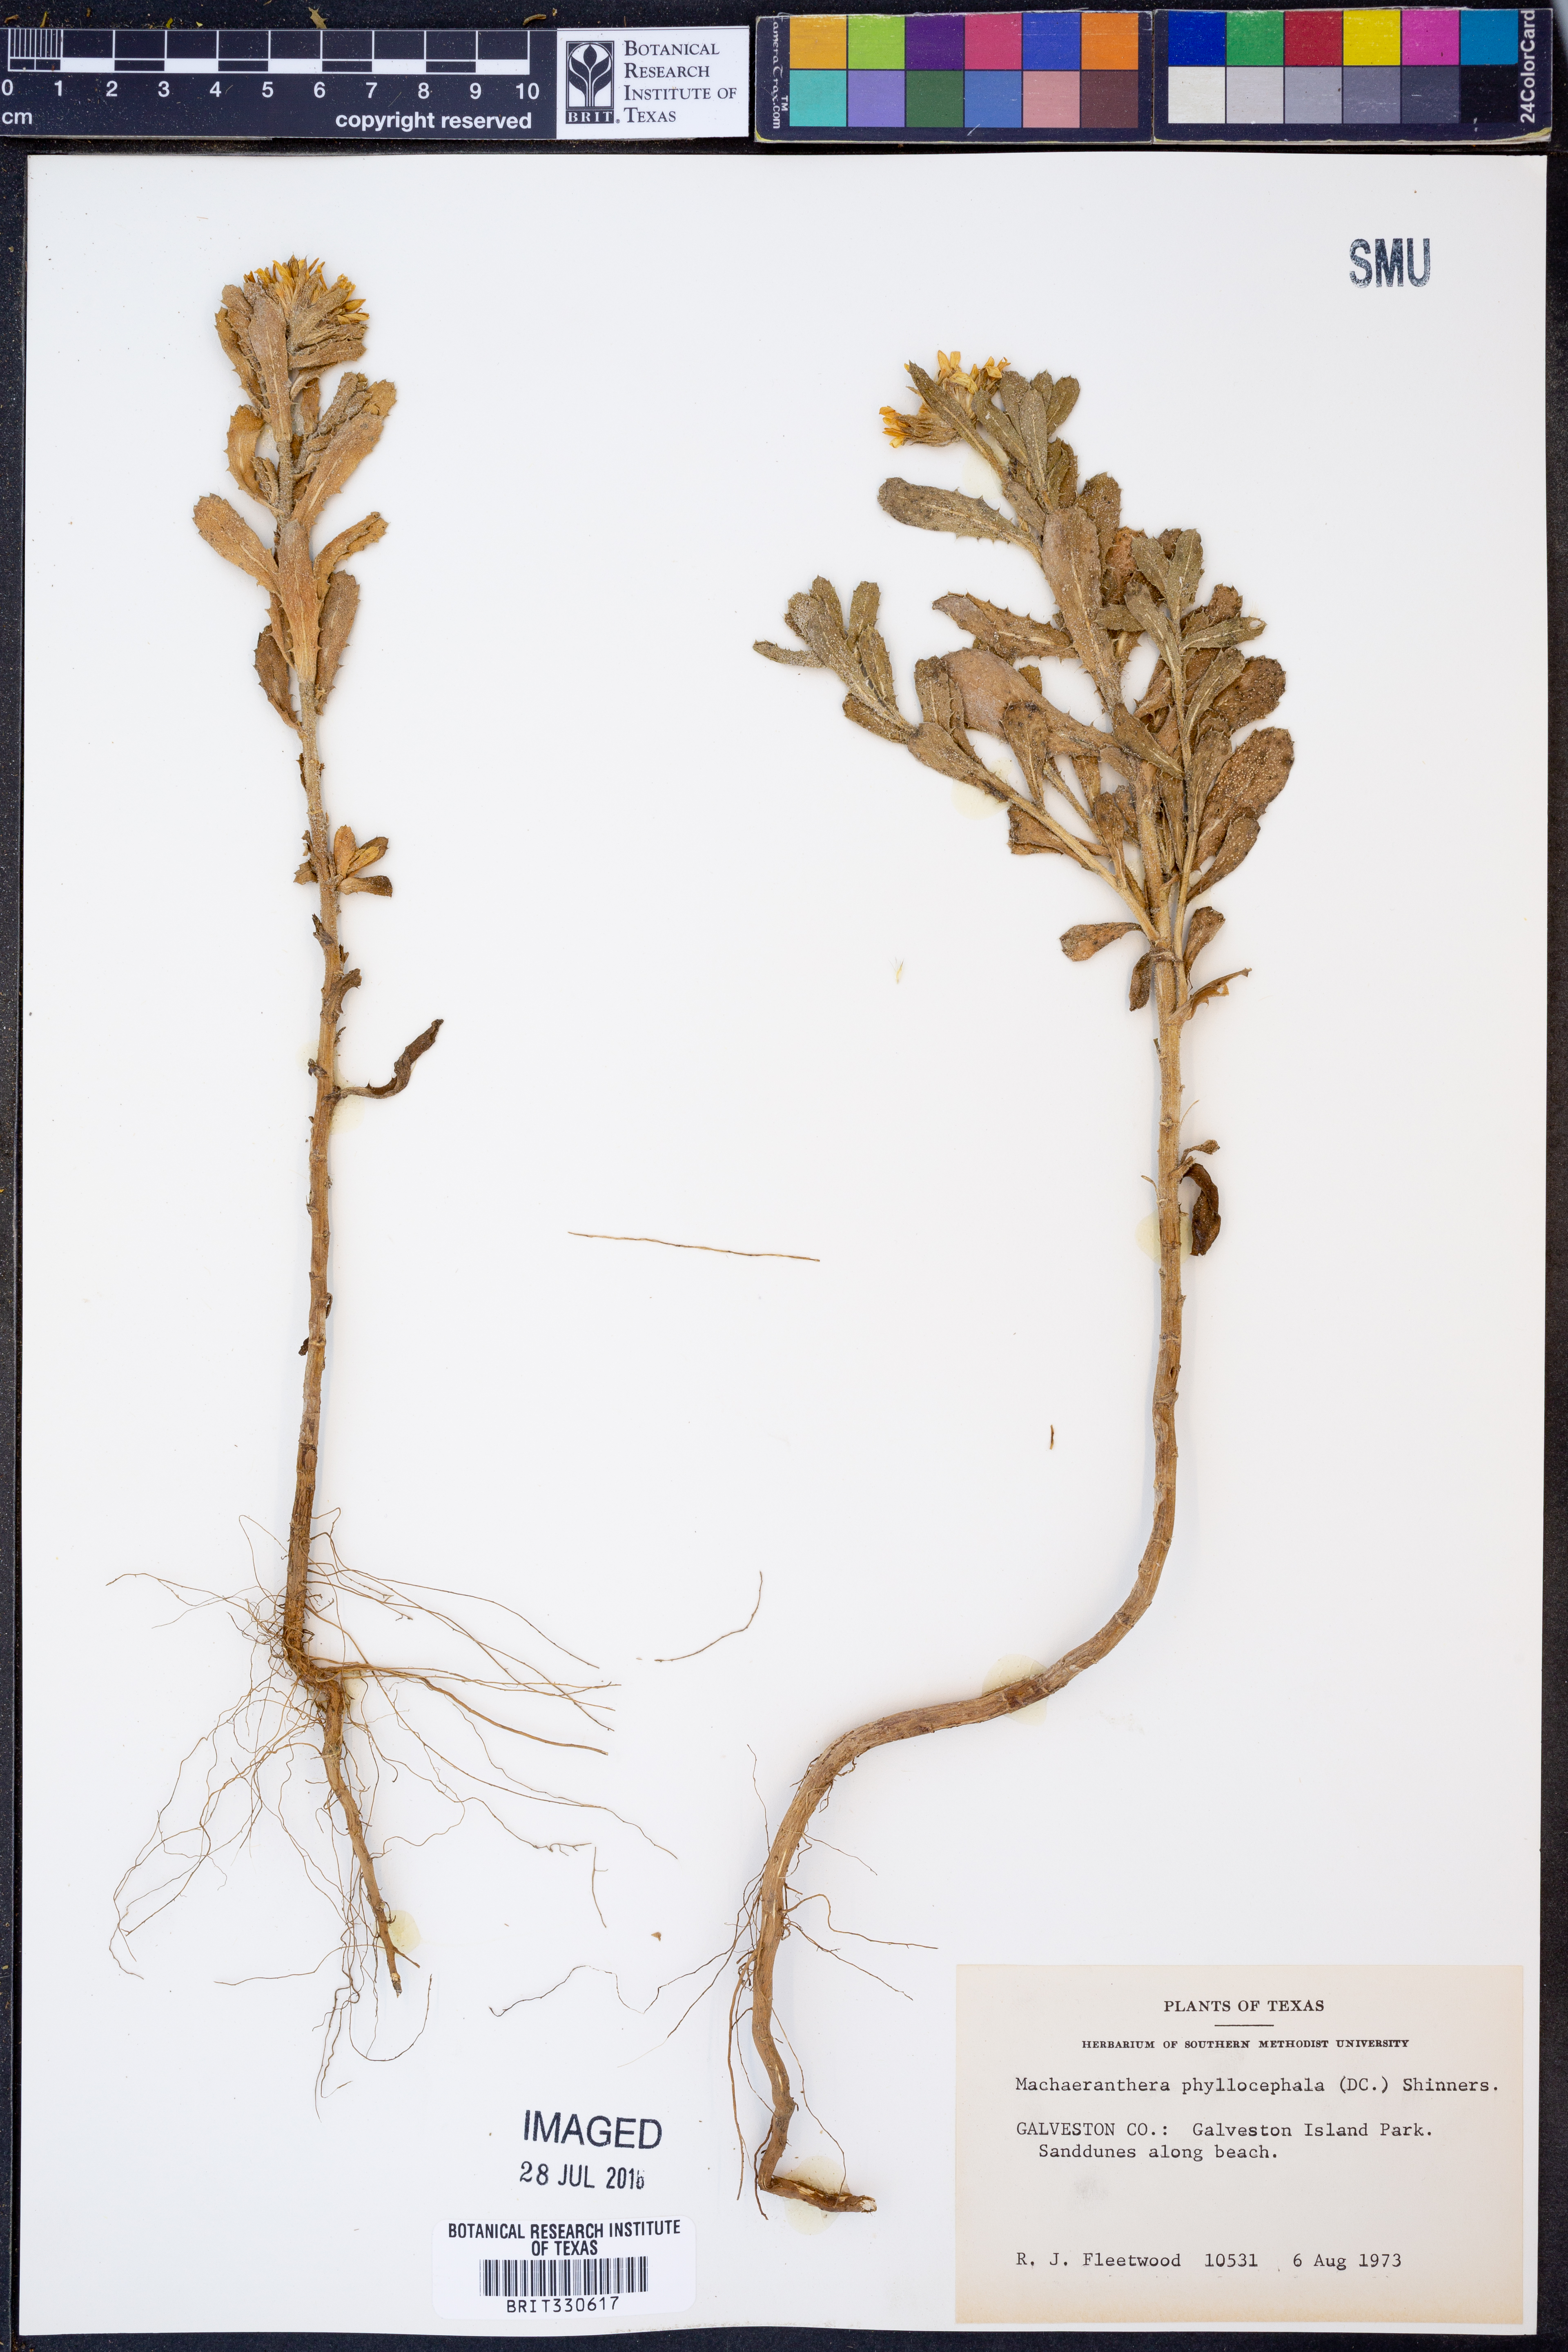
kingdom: Plantae
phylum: Tracheophyta
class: Magnoliopsida
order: Asterales
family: Asteraceae
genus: Rayjacksonia
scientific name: Rayjacksonia phyllocephala
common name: Gulf coast camphor daisy
